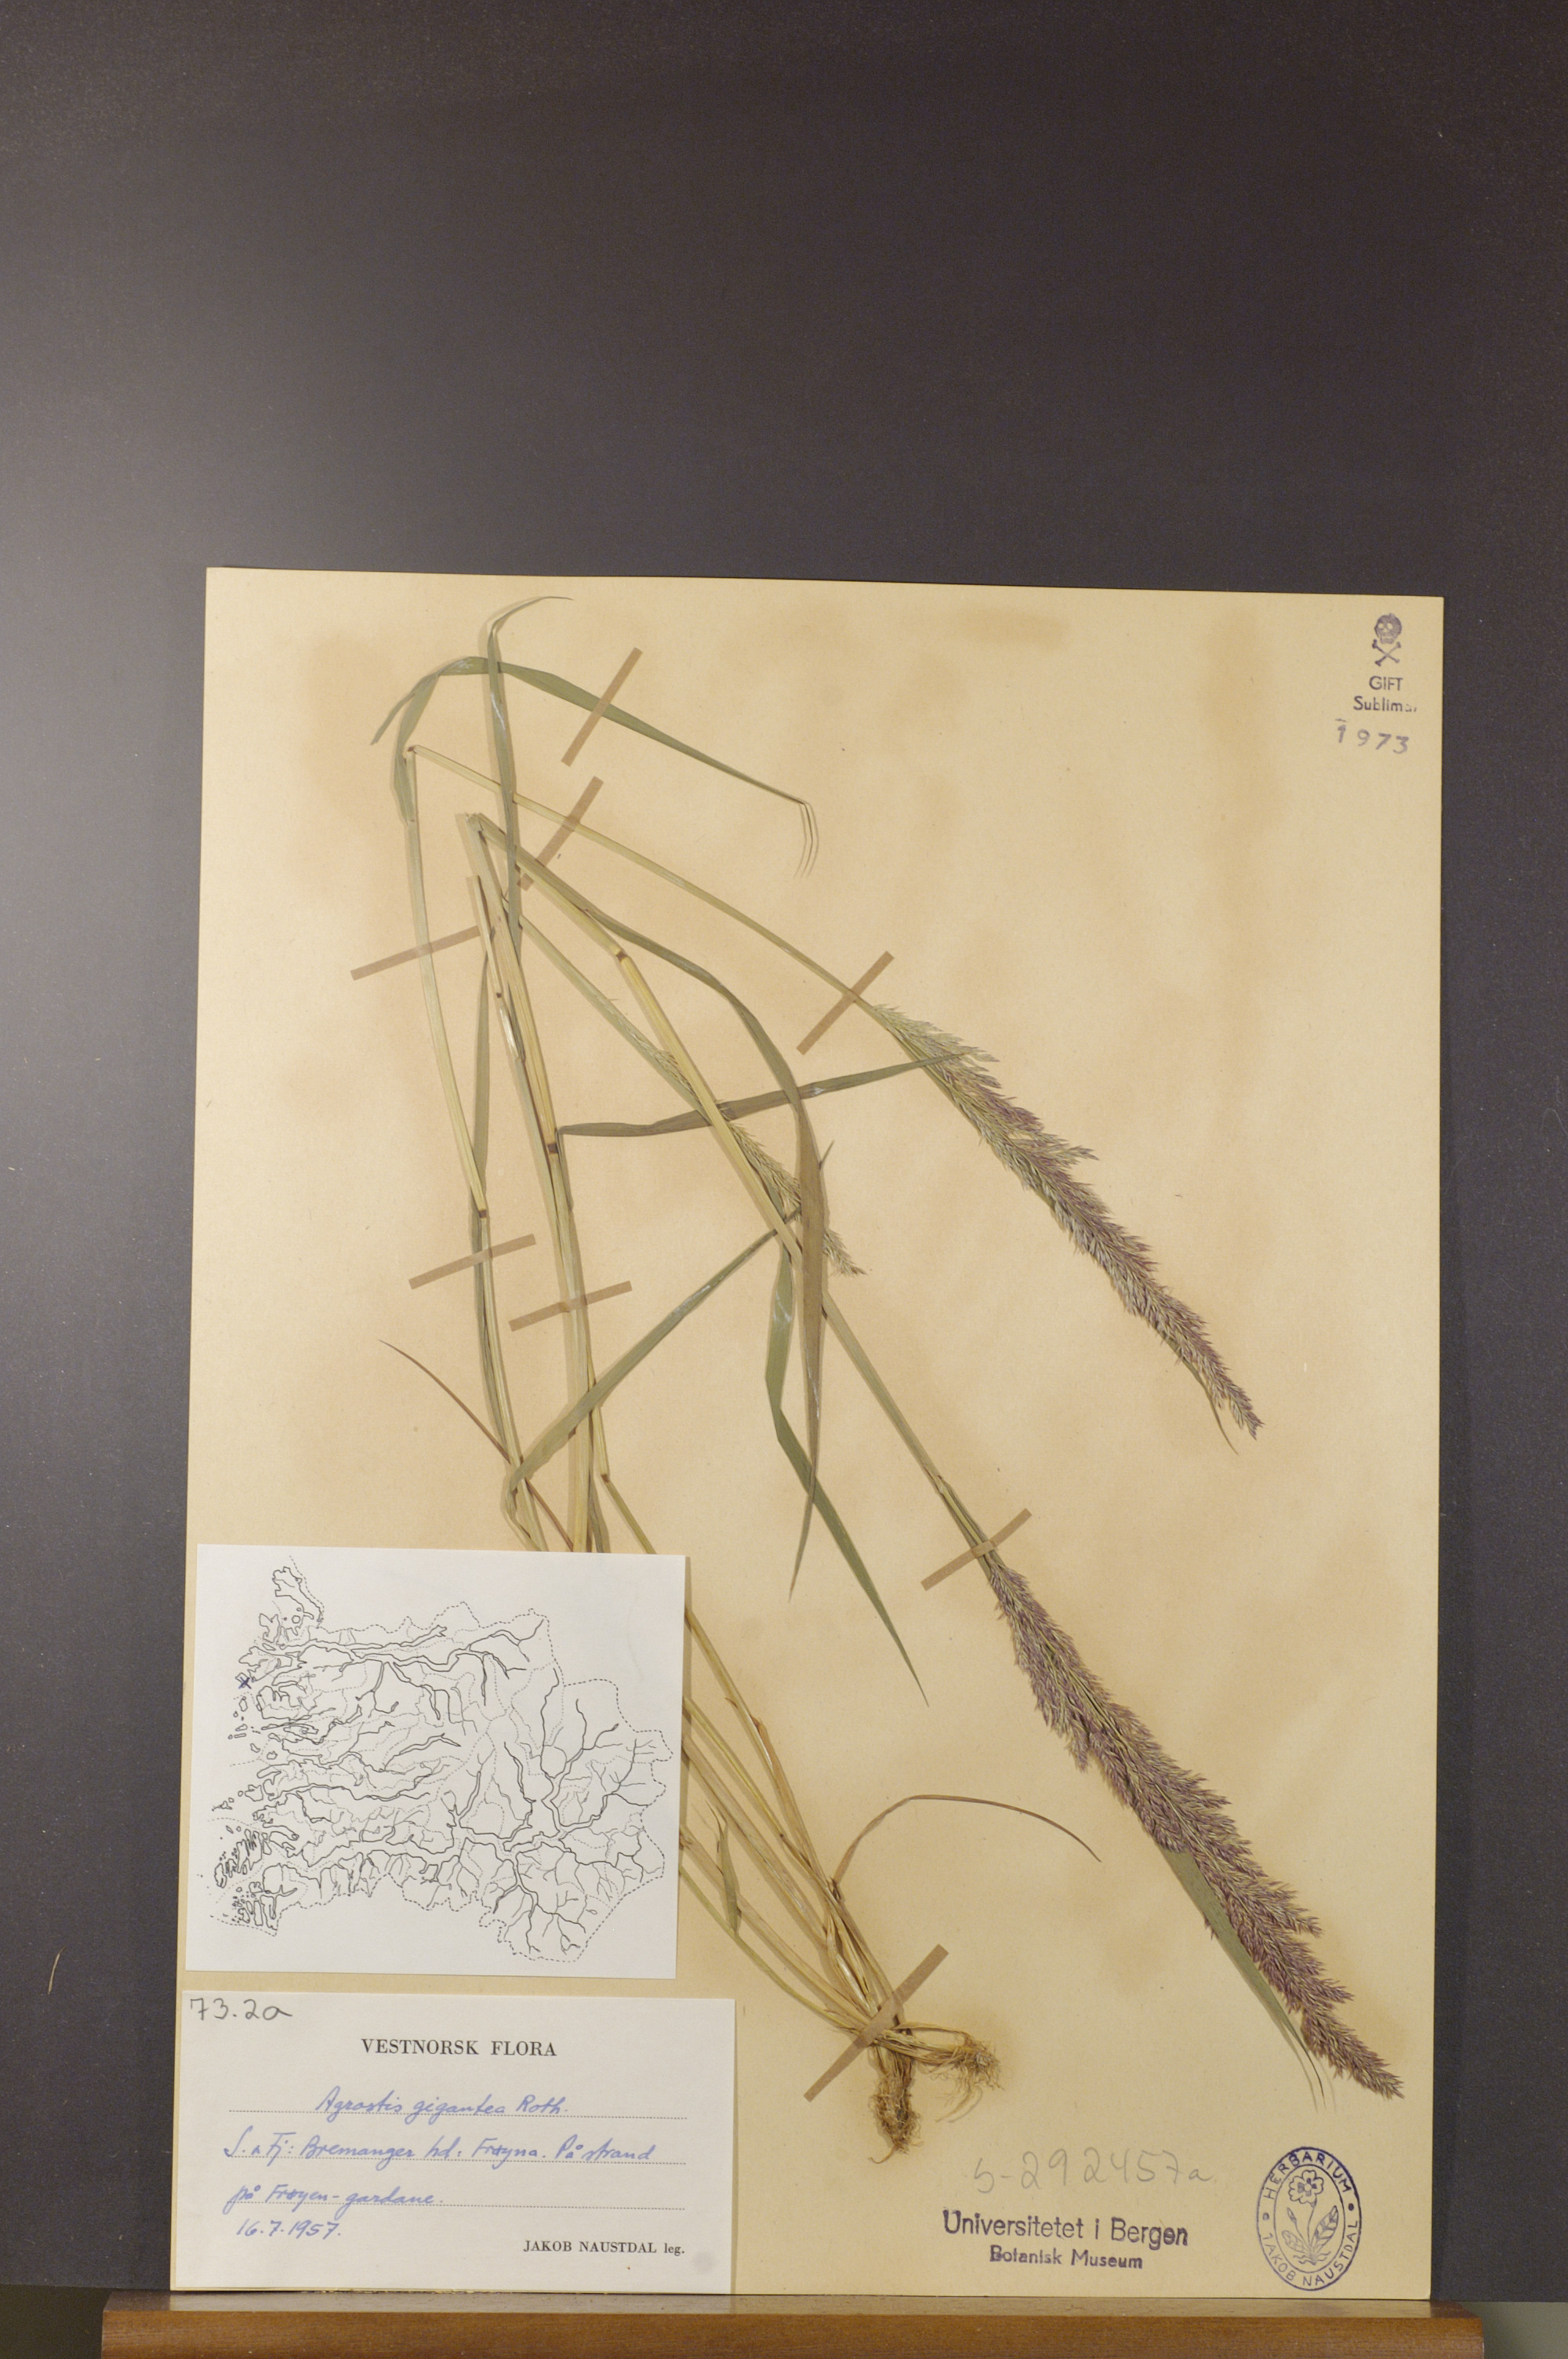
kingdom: Plantae
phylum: Tracheophyta
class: Liliopsida
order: Poales
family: Poaceae
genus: Agrostis
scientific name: Agrostis gigantea
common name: Black bent
